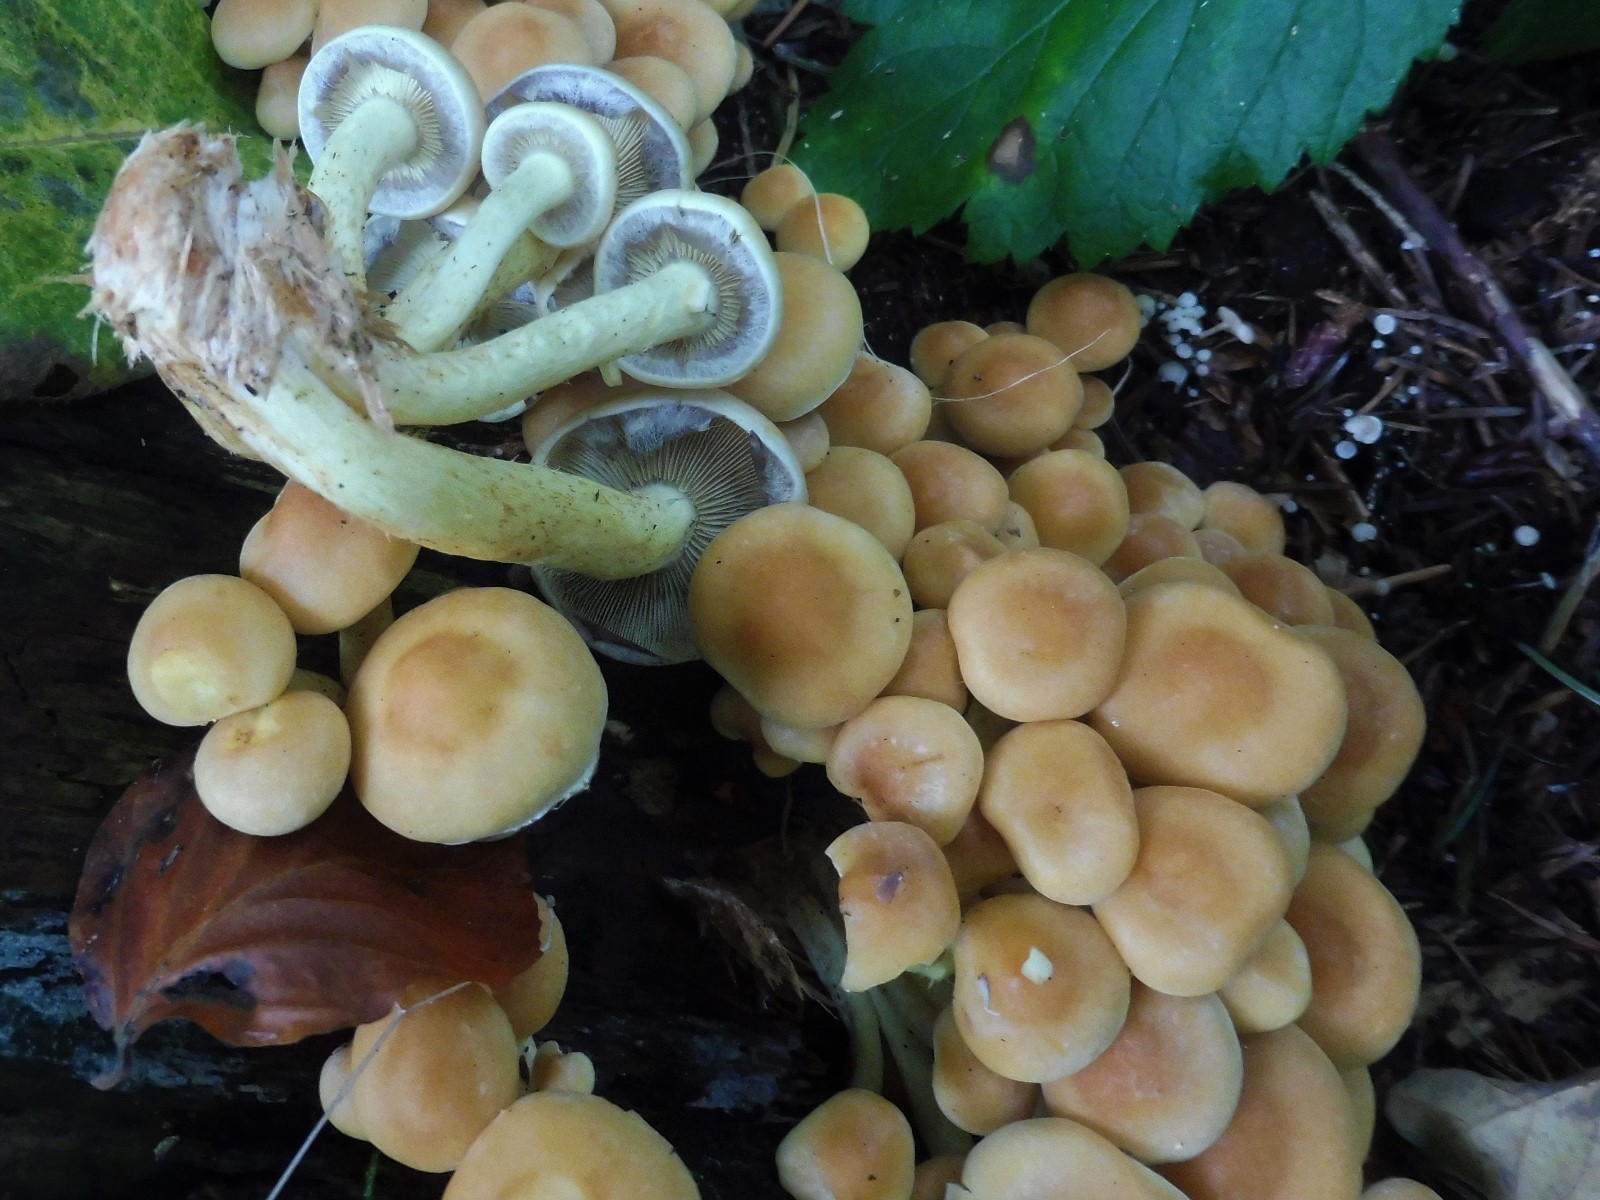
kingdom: Fungi
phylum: Basidiomycota
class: Agaricomycetes
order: Agaricales
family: Strophariaceae
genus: Hypholoma
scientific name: Hypholoma fasciculare
